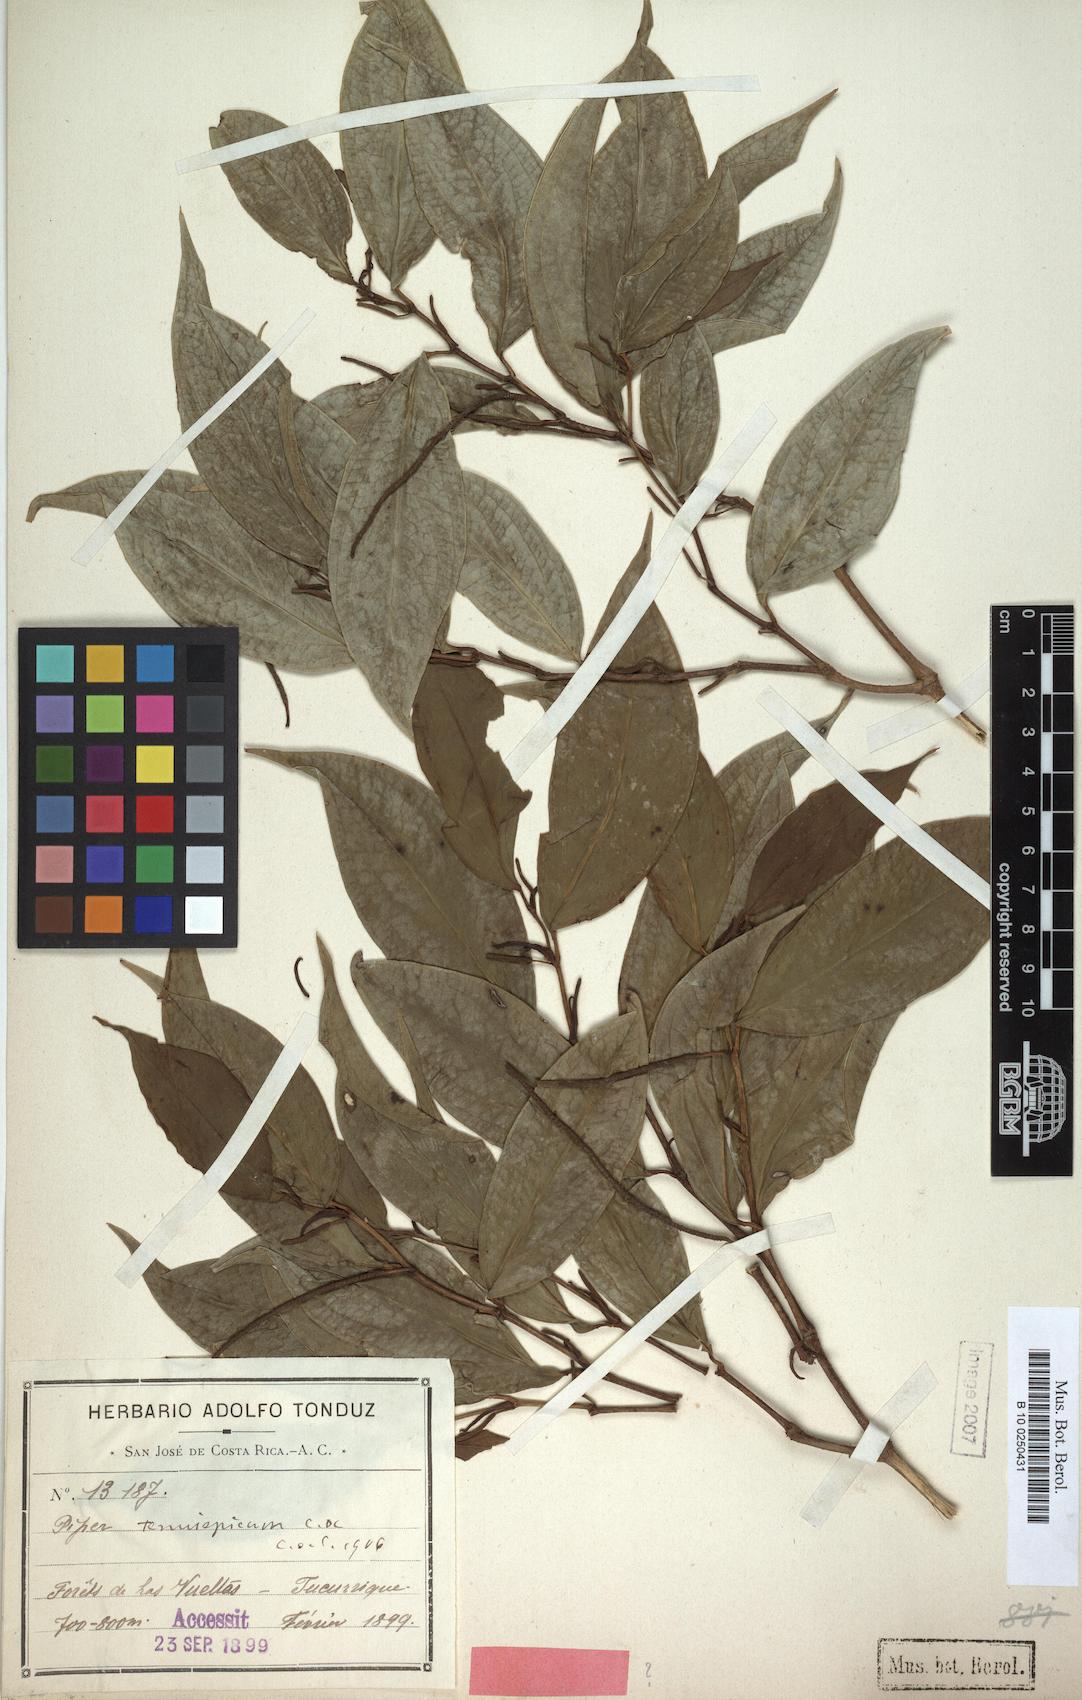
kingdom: Plantae
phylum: Tracheophyta
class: Magnoliopsida
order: Piperales
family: Piperaceae
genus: Piper
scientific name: Piper tenuispicum
